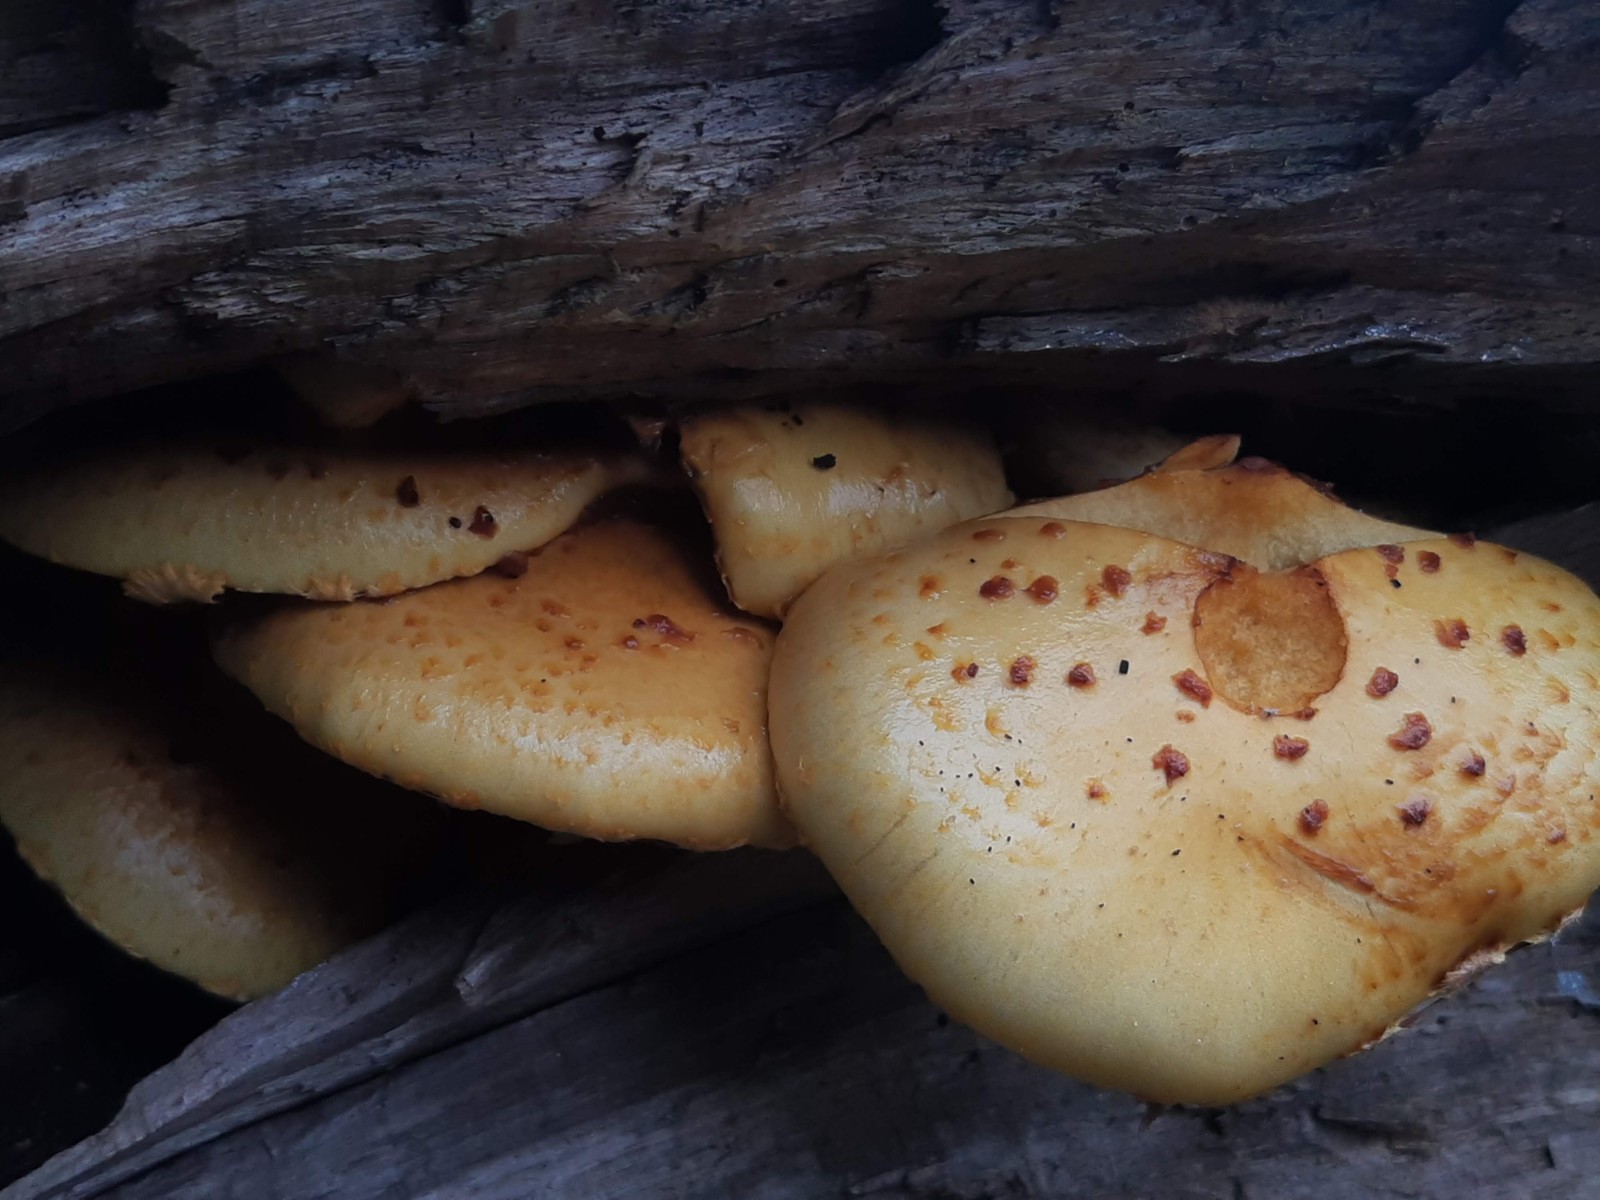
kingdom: Fungi
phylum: Basidiomycota
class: Agaricomycetes
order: Agaricales
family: Strophariaceae
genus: Pholiota
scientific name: Pholiota adiposa
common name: højtsiddende skælhat
